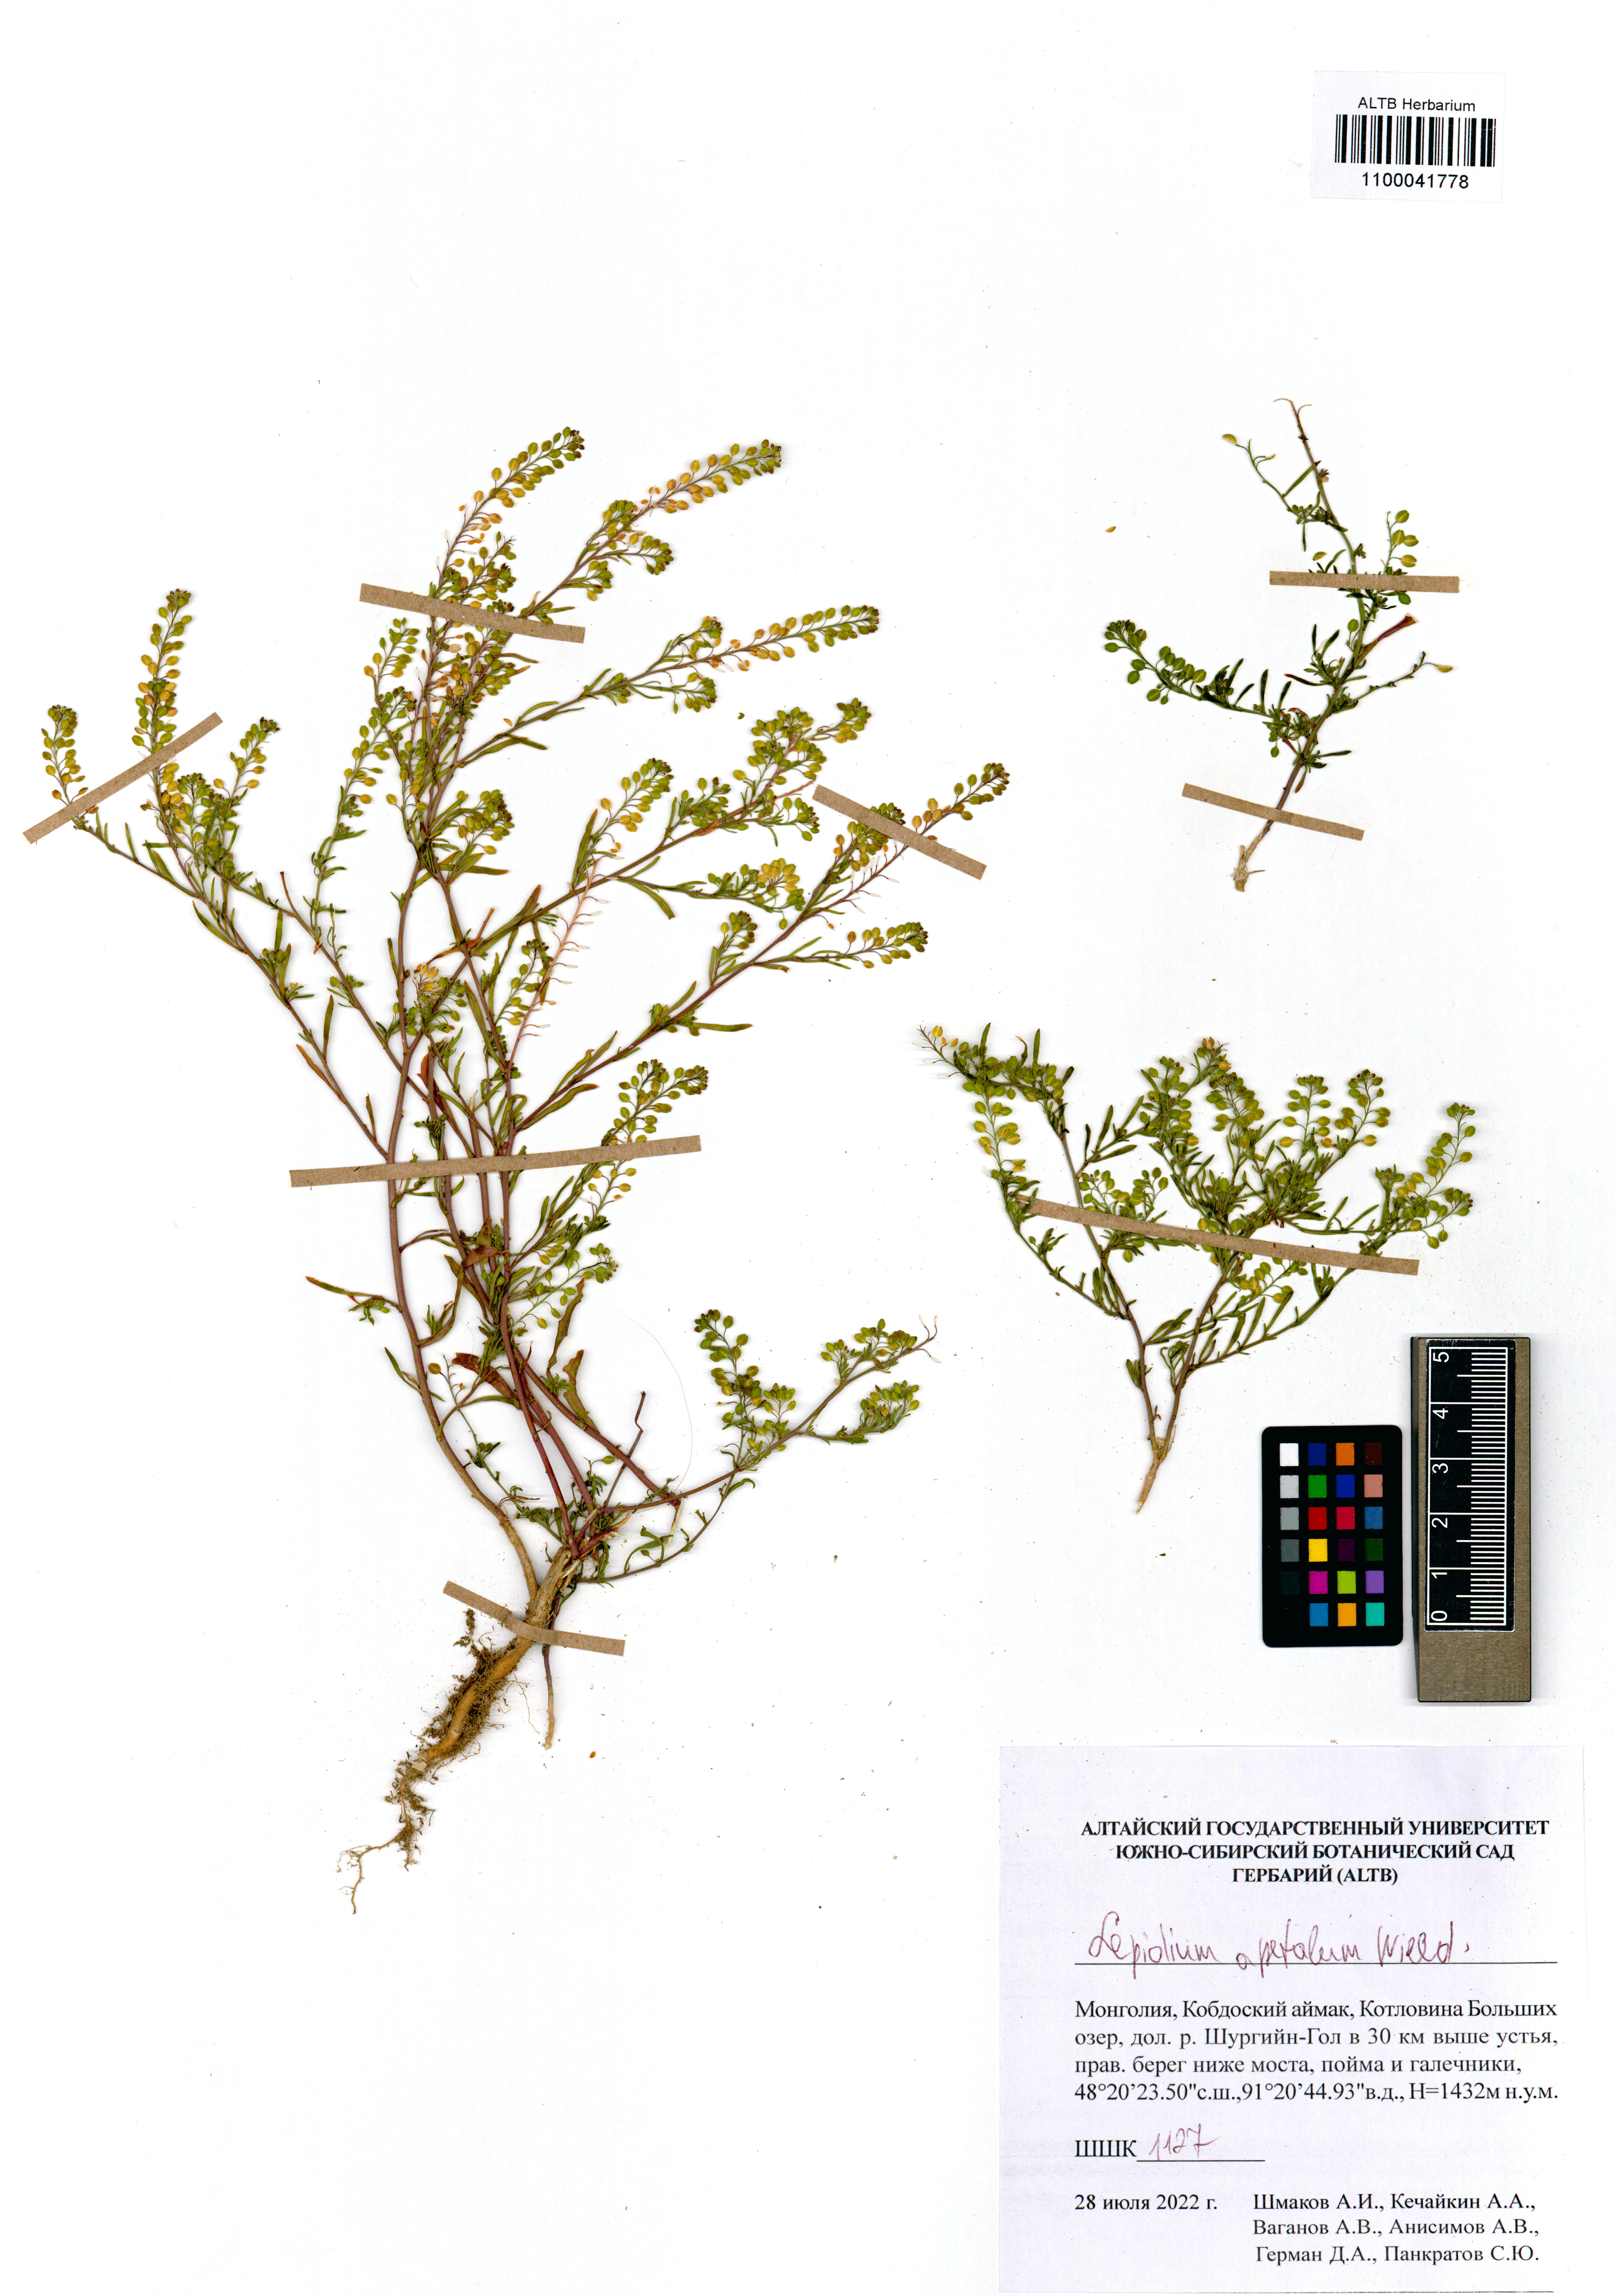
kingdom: Plantae
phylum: Tracheophyta
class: Magnoliopsida
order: Brassicales
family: Brassicaceae
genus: Lepidium
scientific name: Lepidium apetalum
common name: Pepperweed
